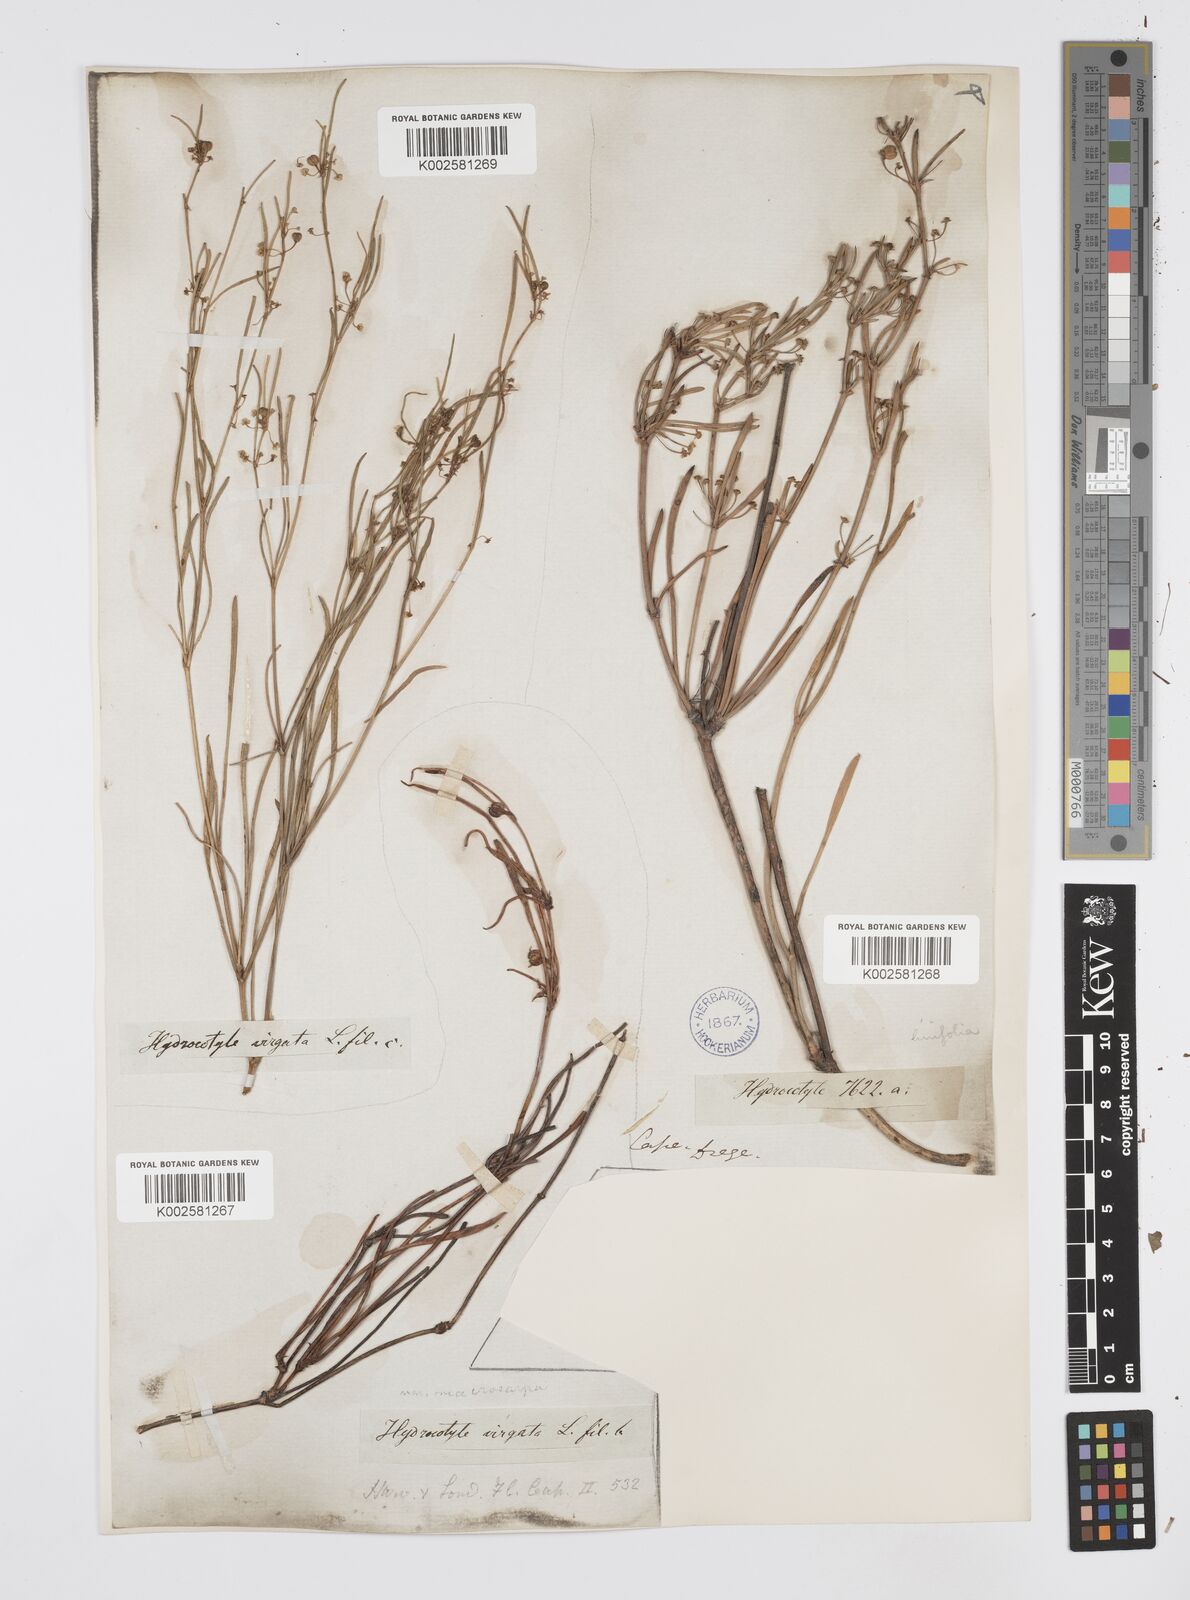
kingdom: Plantae
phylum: Tracheophyta
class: Magnoliopsida
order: Apiales
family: Apiaceae
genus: Centella
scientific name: Centella linifolia
